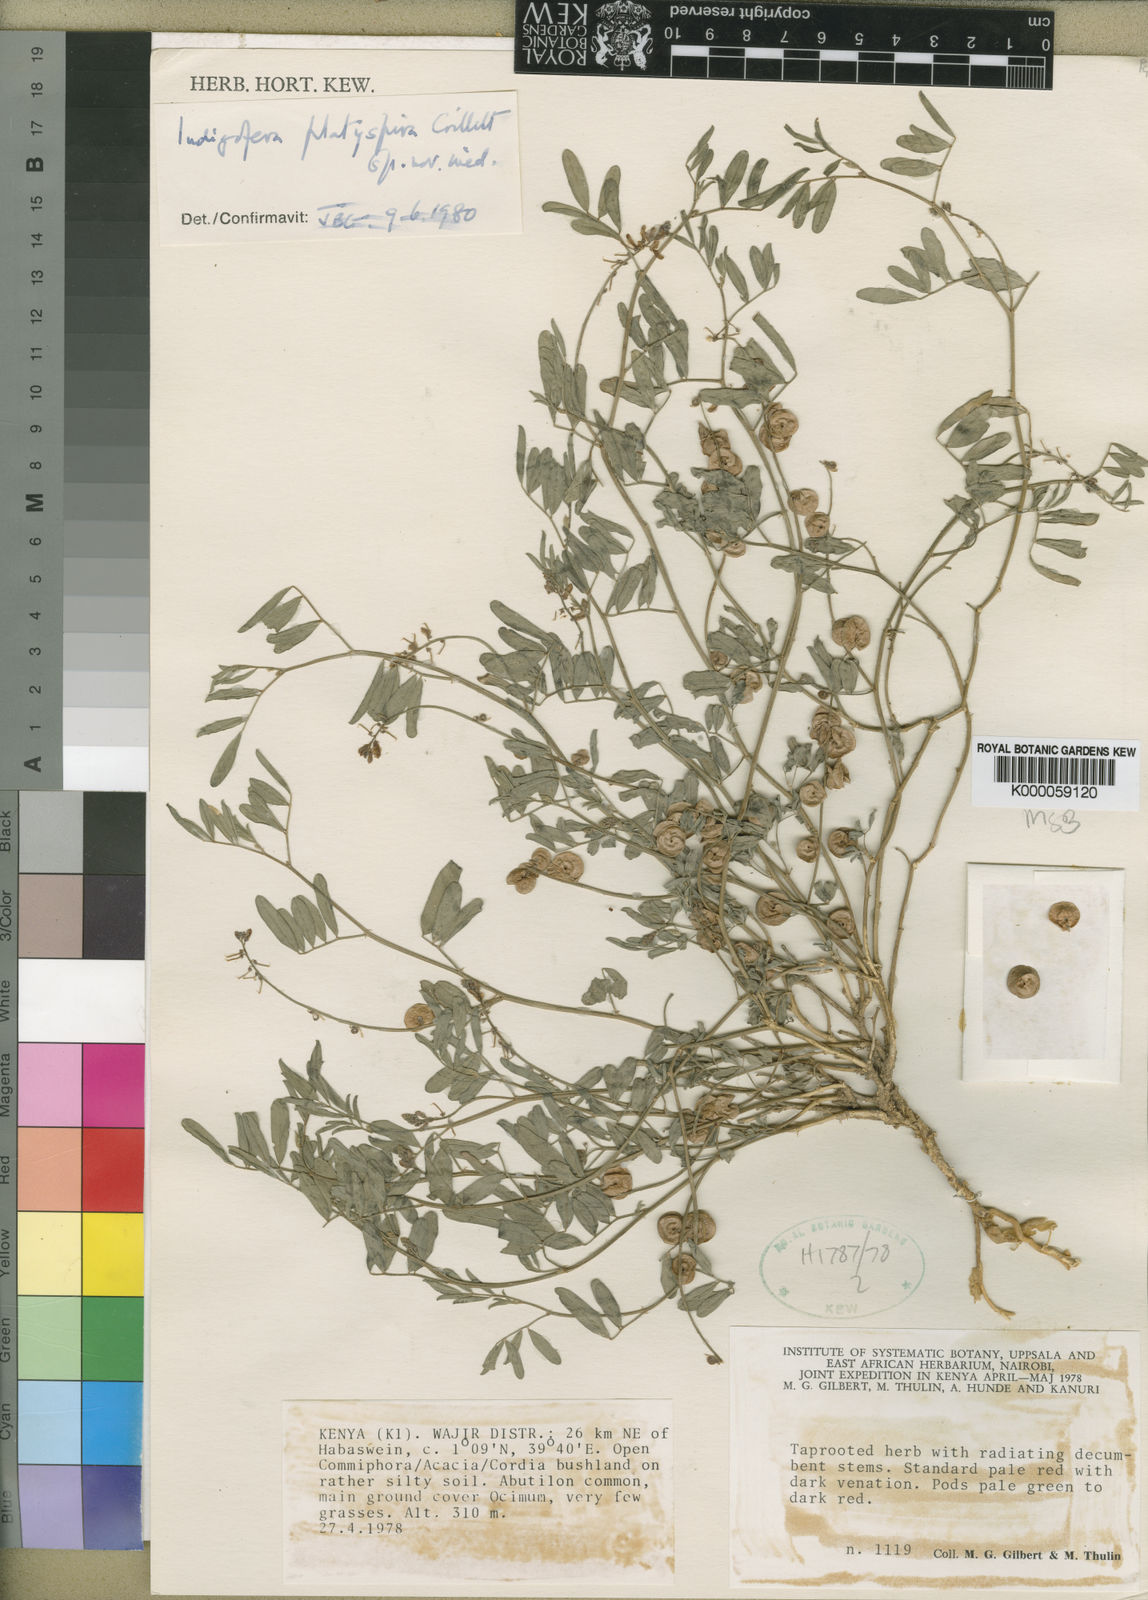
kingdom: Plantae
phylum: Tracheophyta
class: Magnoliopsida
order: Fabales
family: Fabaceae
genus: Indigofera
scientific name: Indigofera platyspira
